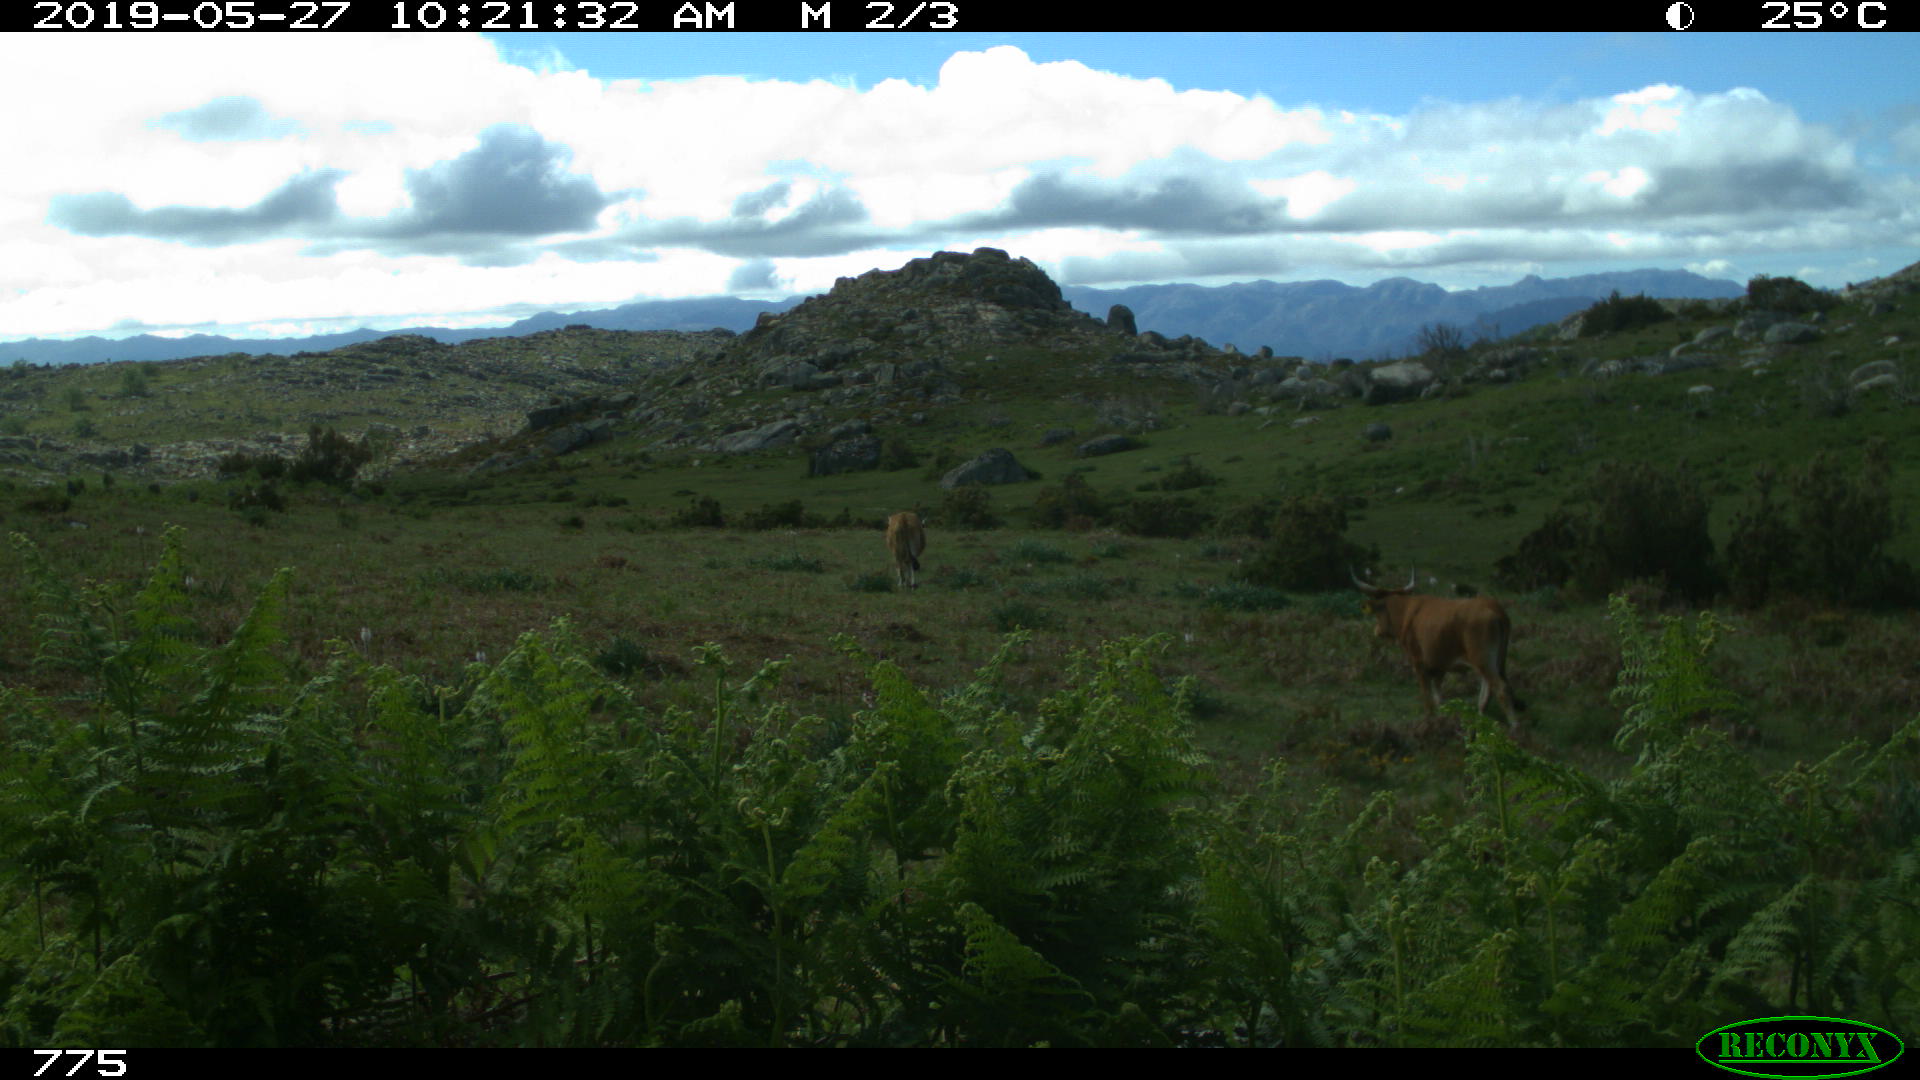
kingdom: Animalia
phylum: Chordata
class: Mammalia
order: Artiodactyla
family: Bovidae
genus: Bos
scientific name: Bos taurus
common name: Domesticated cattle
